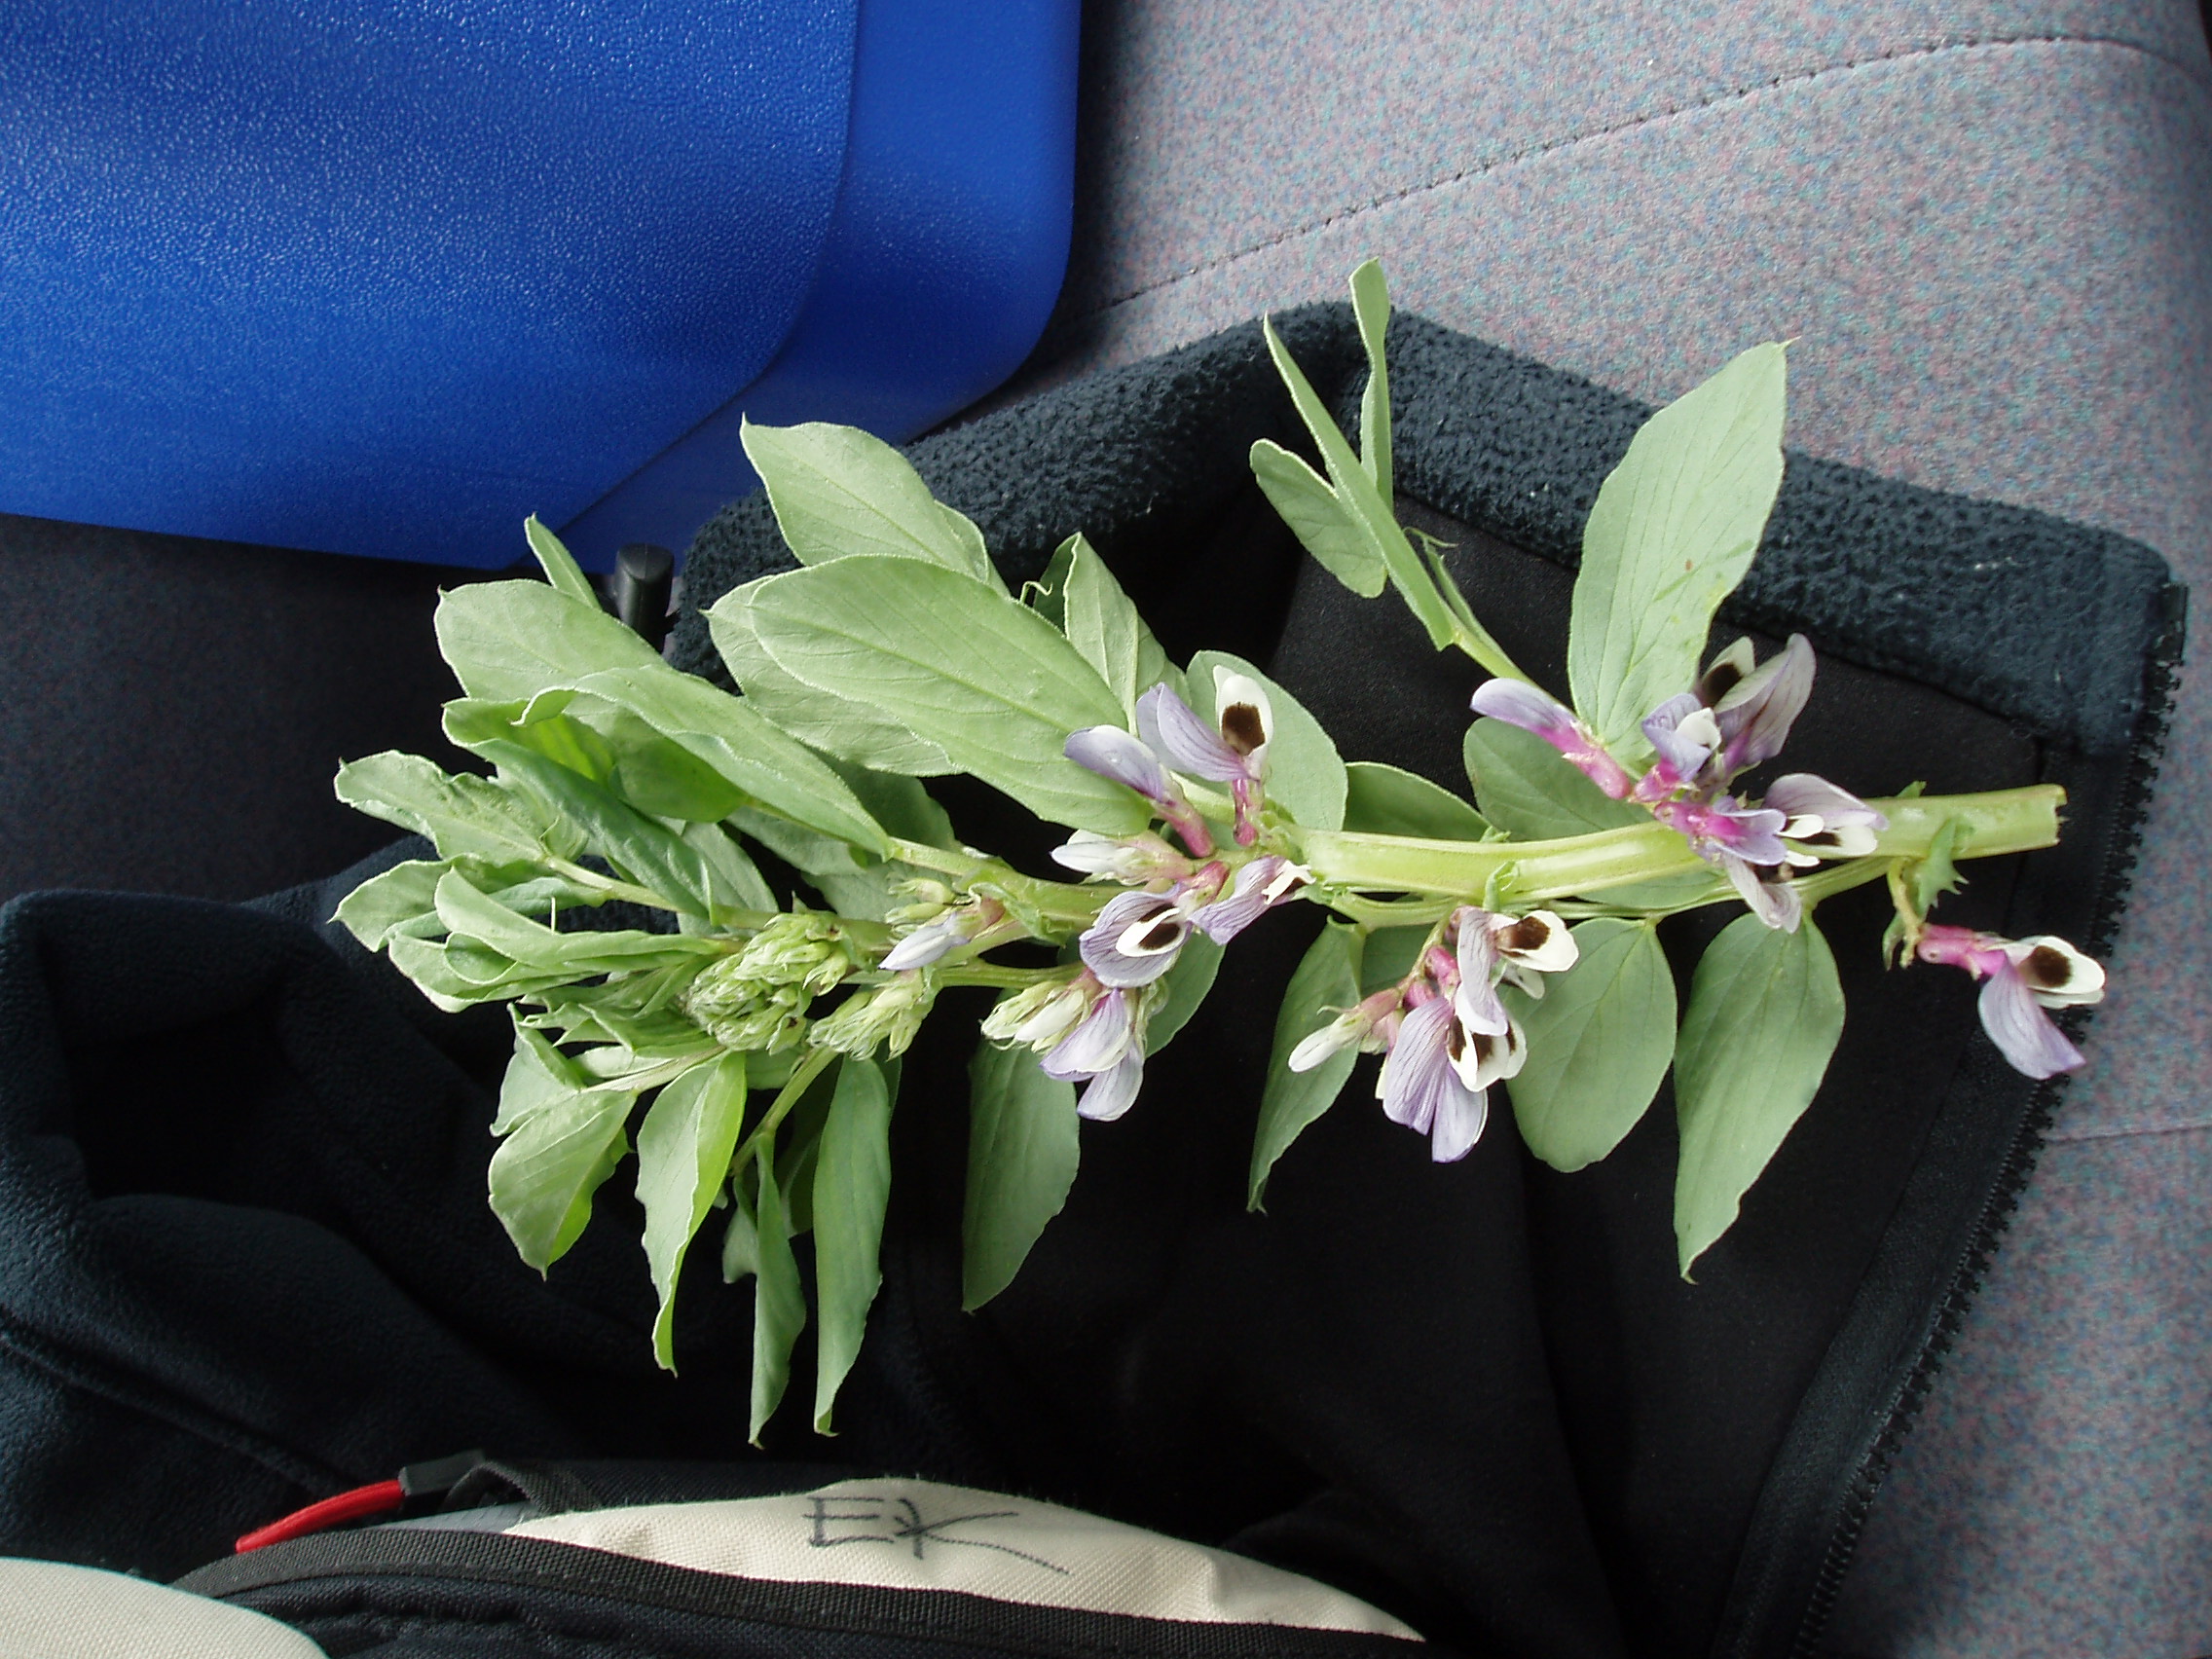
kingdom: Plantae
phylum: Tracheophyta
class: Magnoliopsida
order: Fabales
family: Fabaceae
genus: Vicia
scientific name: Vicia faba
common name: Broad bean
